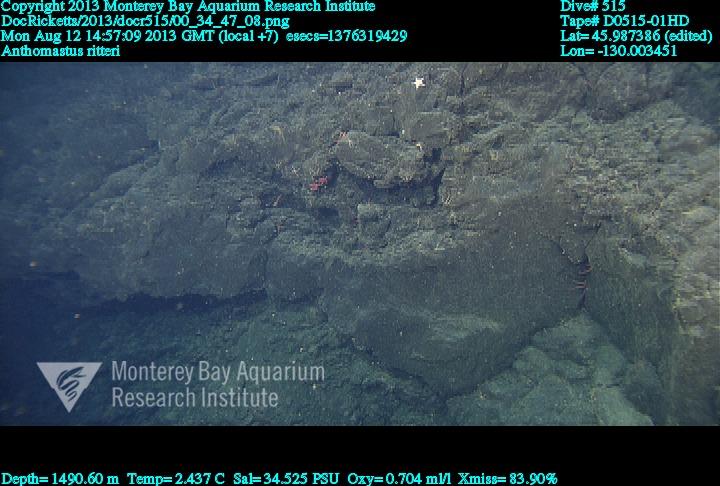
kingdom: Animalia
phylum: Cnidaria
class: Anthozoa
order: Scleralcyonacea
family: Coralliidae
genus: Heteropolypus
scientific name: Heteropolypus ritteri
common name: Ritter's soft coral
